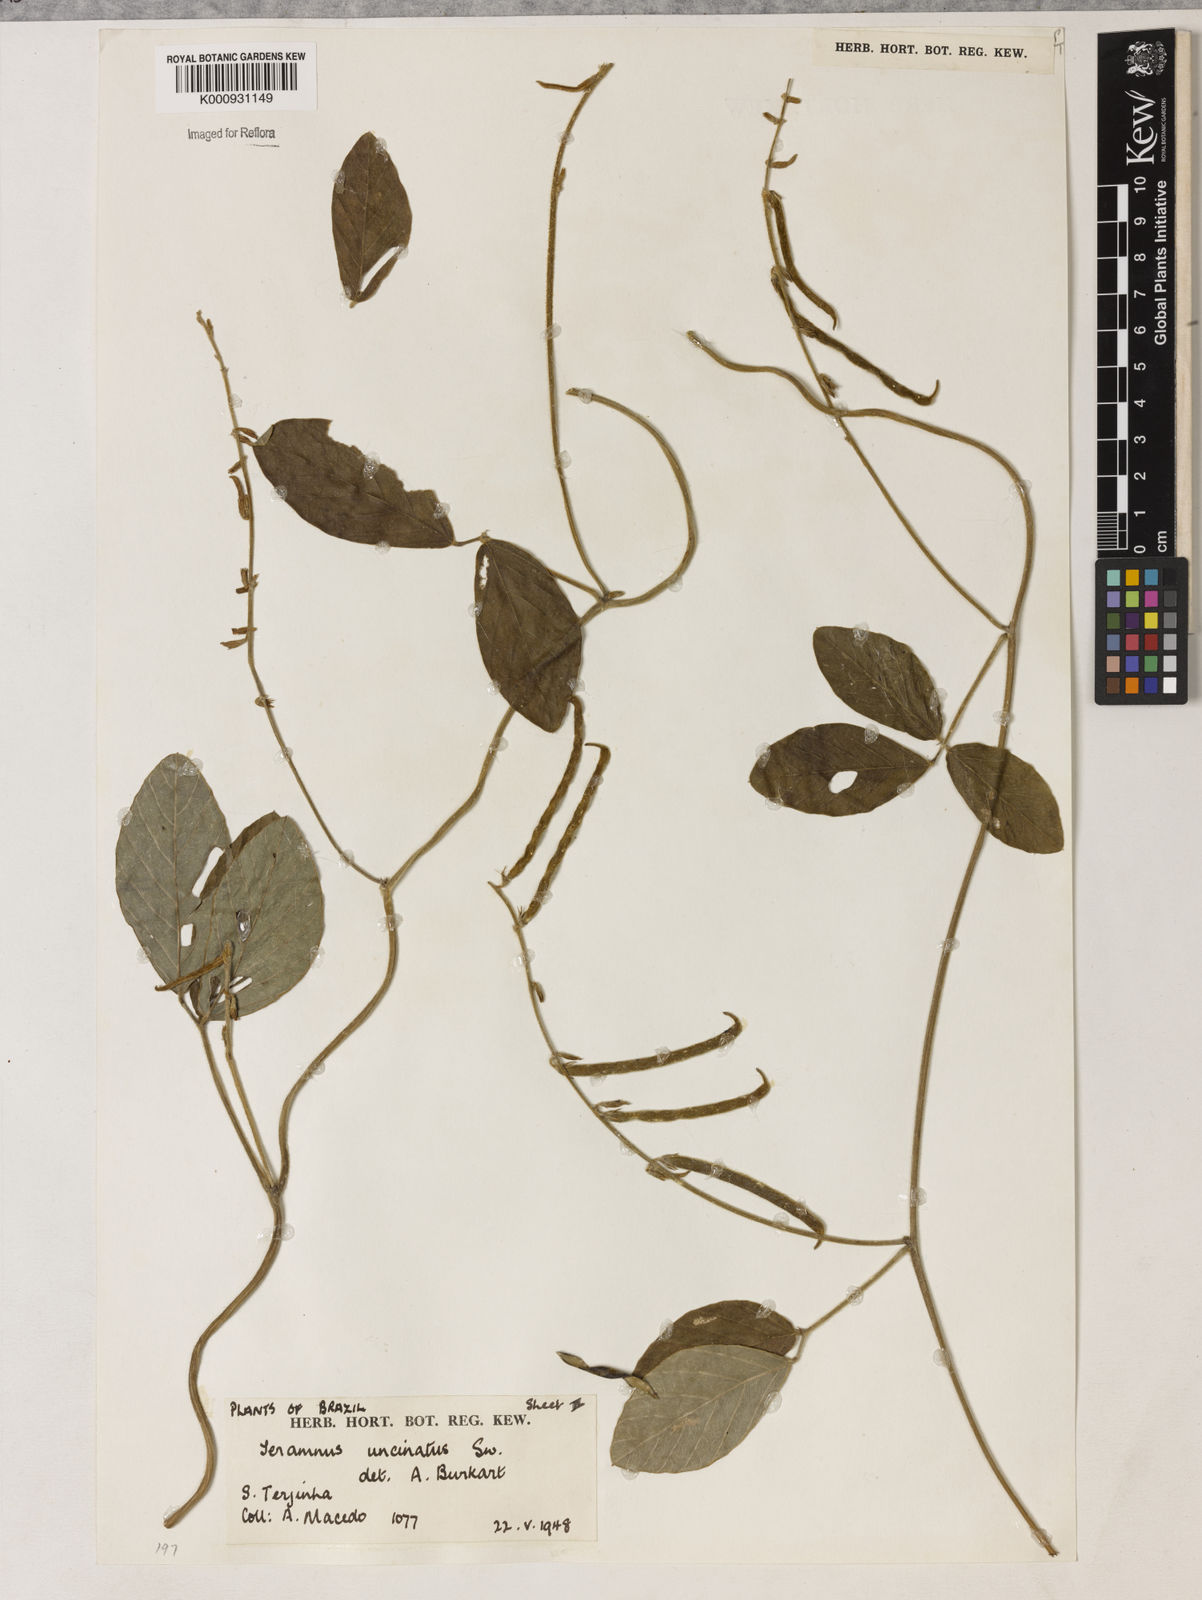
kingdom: Plantae
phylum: Tracheophyta
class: Magnoliopsida
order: Fabales
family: Fabaceae
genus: Teramnus
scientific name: Teramnus uncinatus
